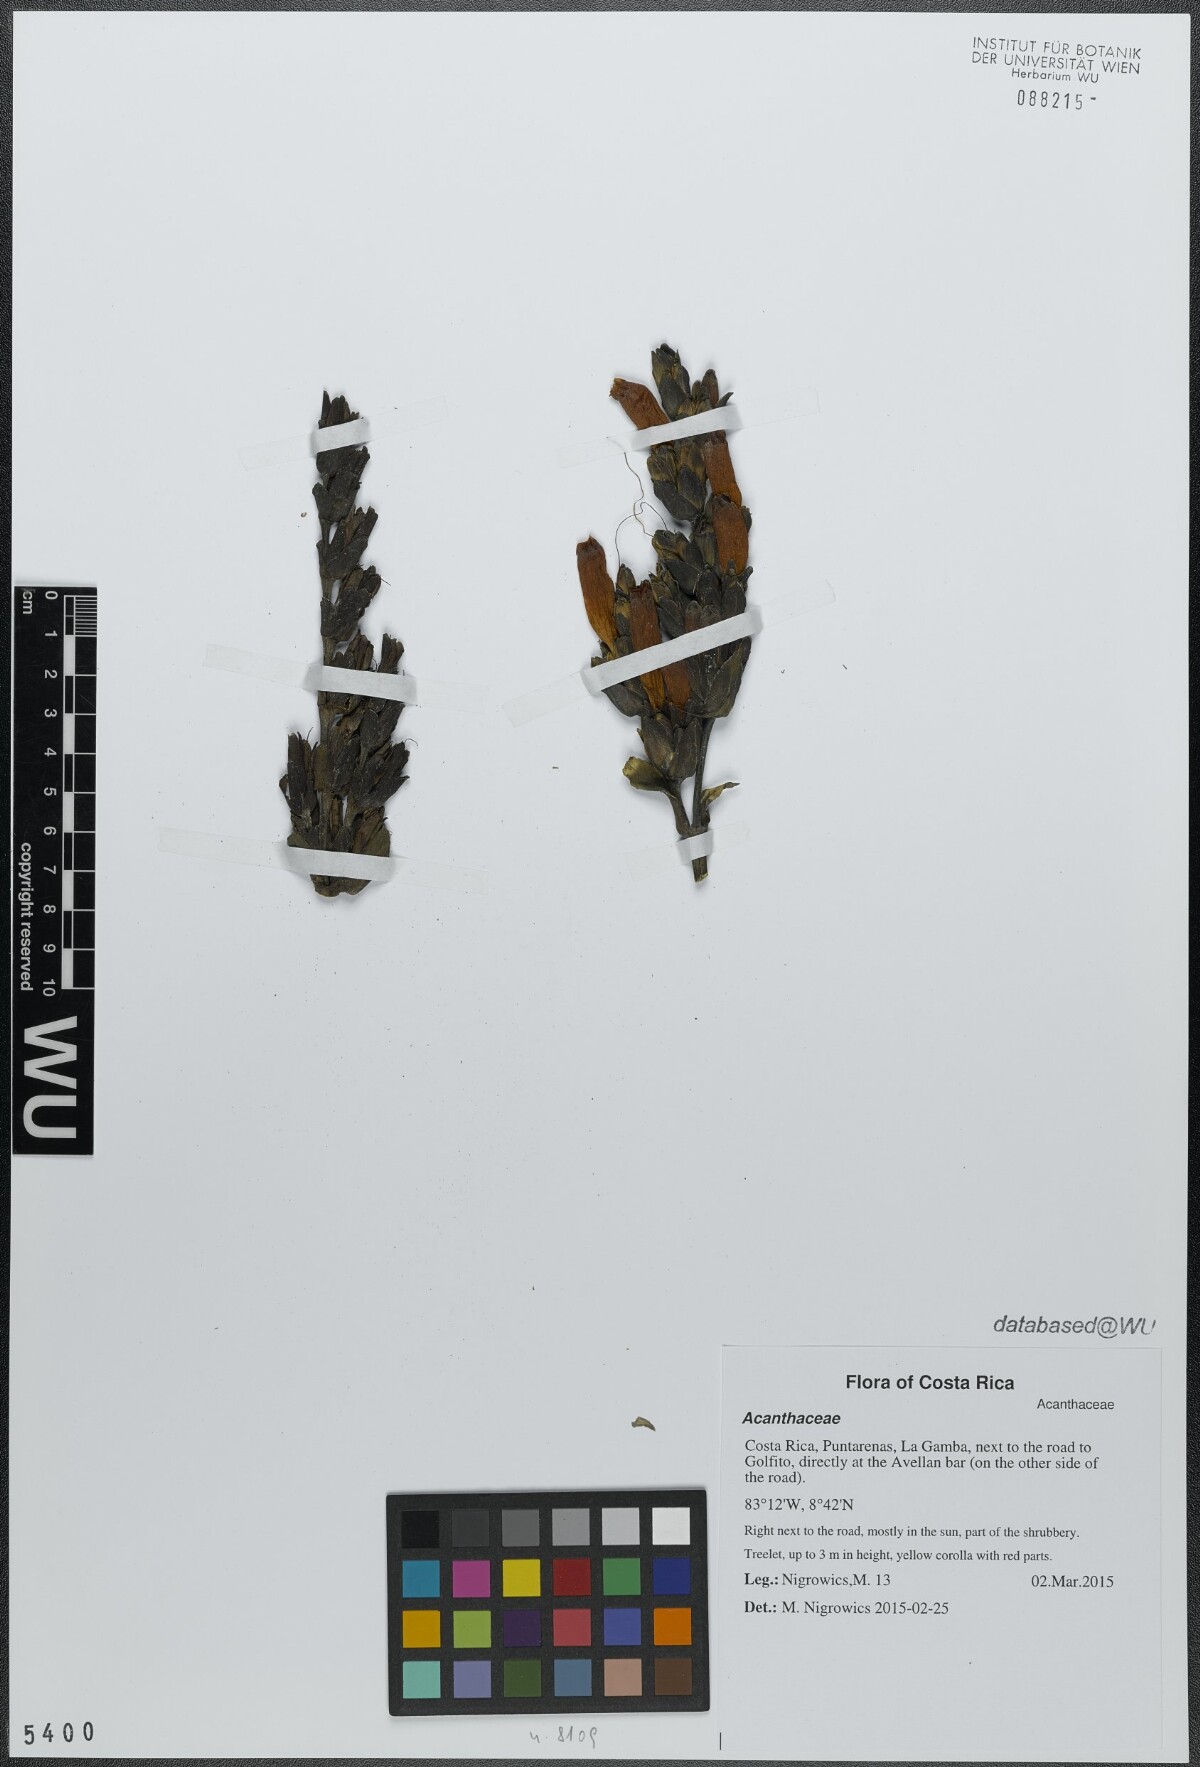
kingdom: Plantae
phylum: Tracheophyta
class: Magnoliopsida
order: Lamiales
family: Acanthaceae
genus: Sanchezia
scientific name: Sanchezia parvibracteata
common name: Sanchezia
